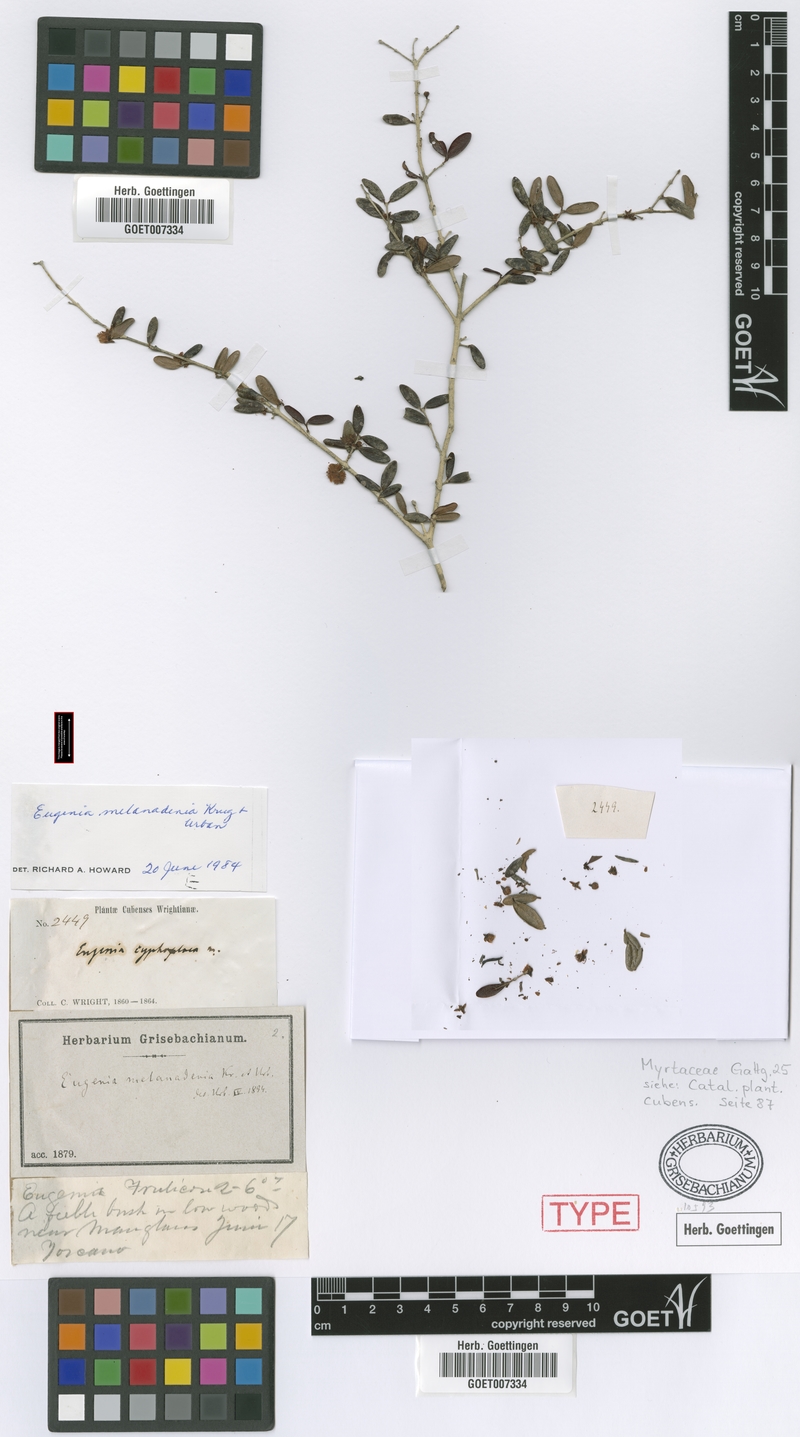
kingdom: Plantae
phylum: Tracheophyta
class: Magnoliopsida
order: Myrtales
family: Myrtaceae
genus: Eugenia
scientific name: Eugenia melanadenia
